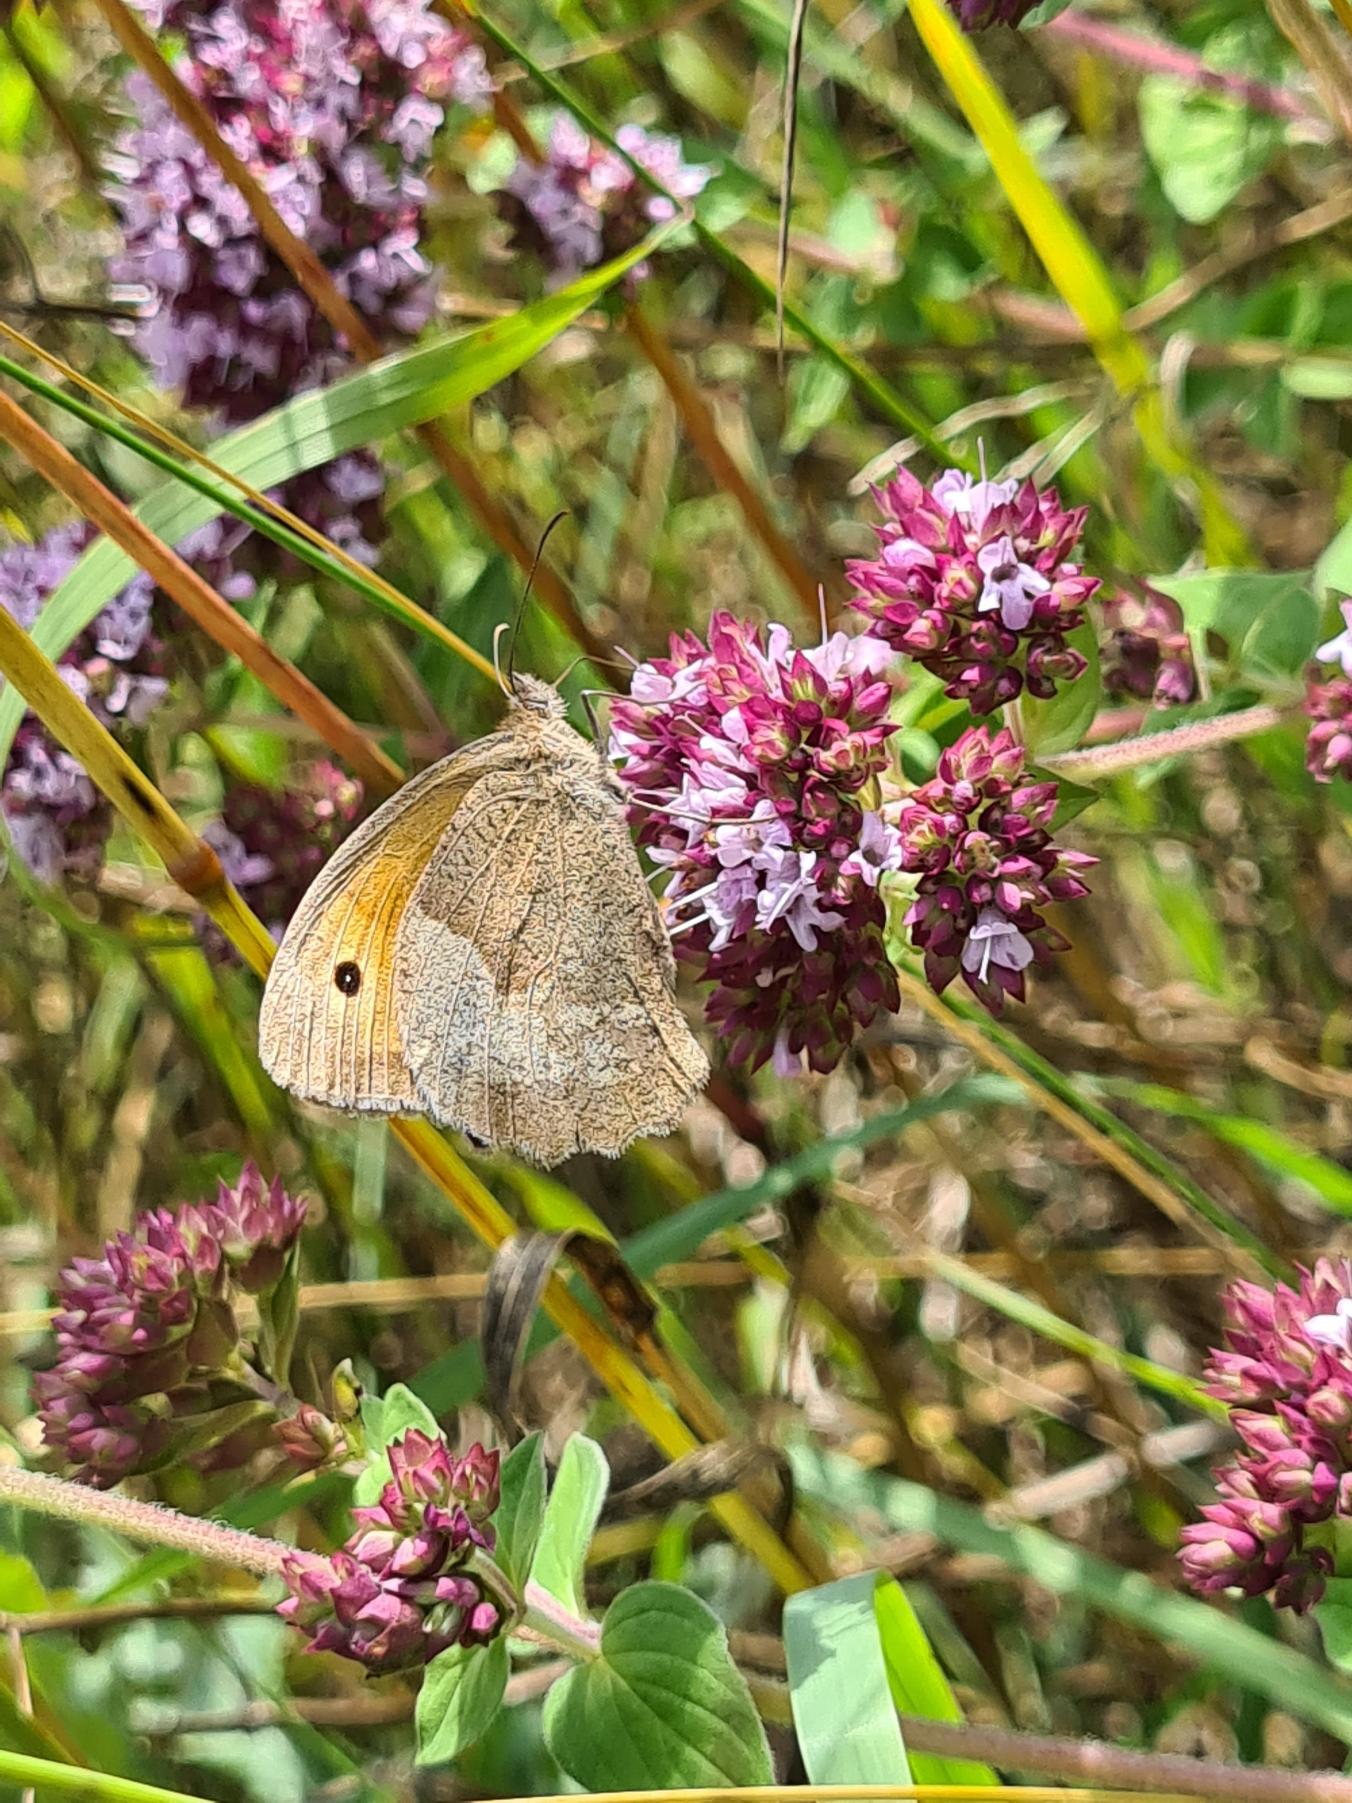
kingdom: Animalia
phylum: Arthropoda
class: Insecta
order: Lepidoptera
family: Nymphalidae
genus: Maniola
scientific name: Maniola jurtina
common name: Græsrandøje
